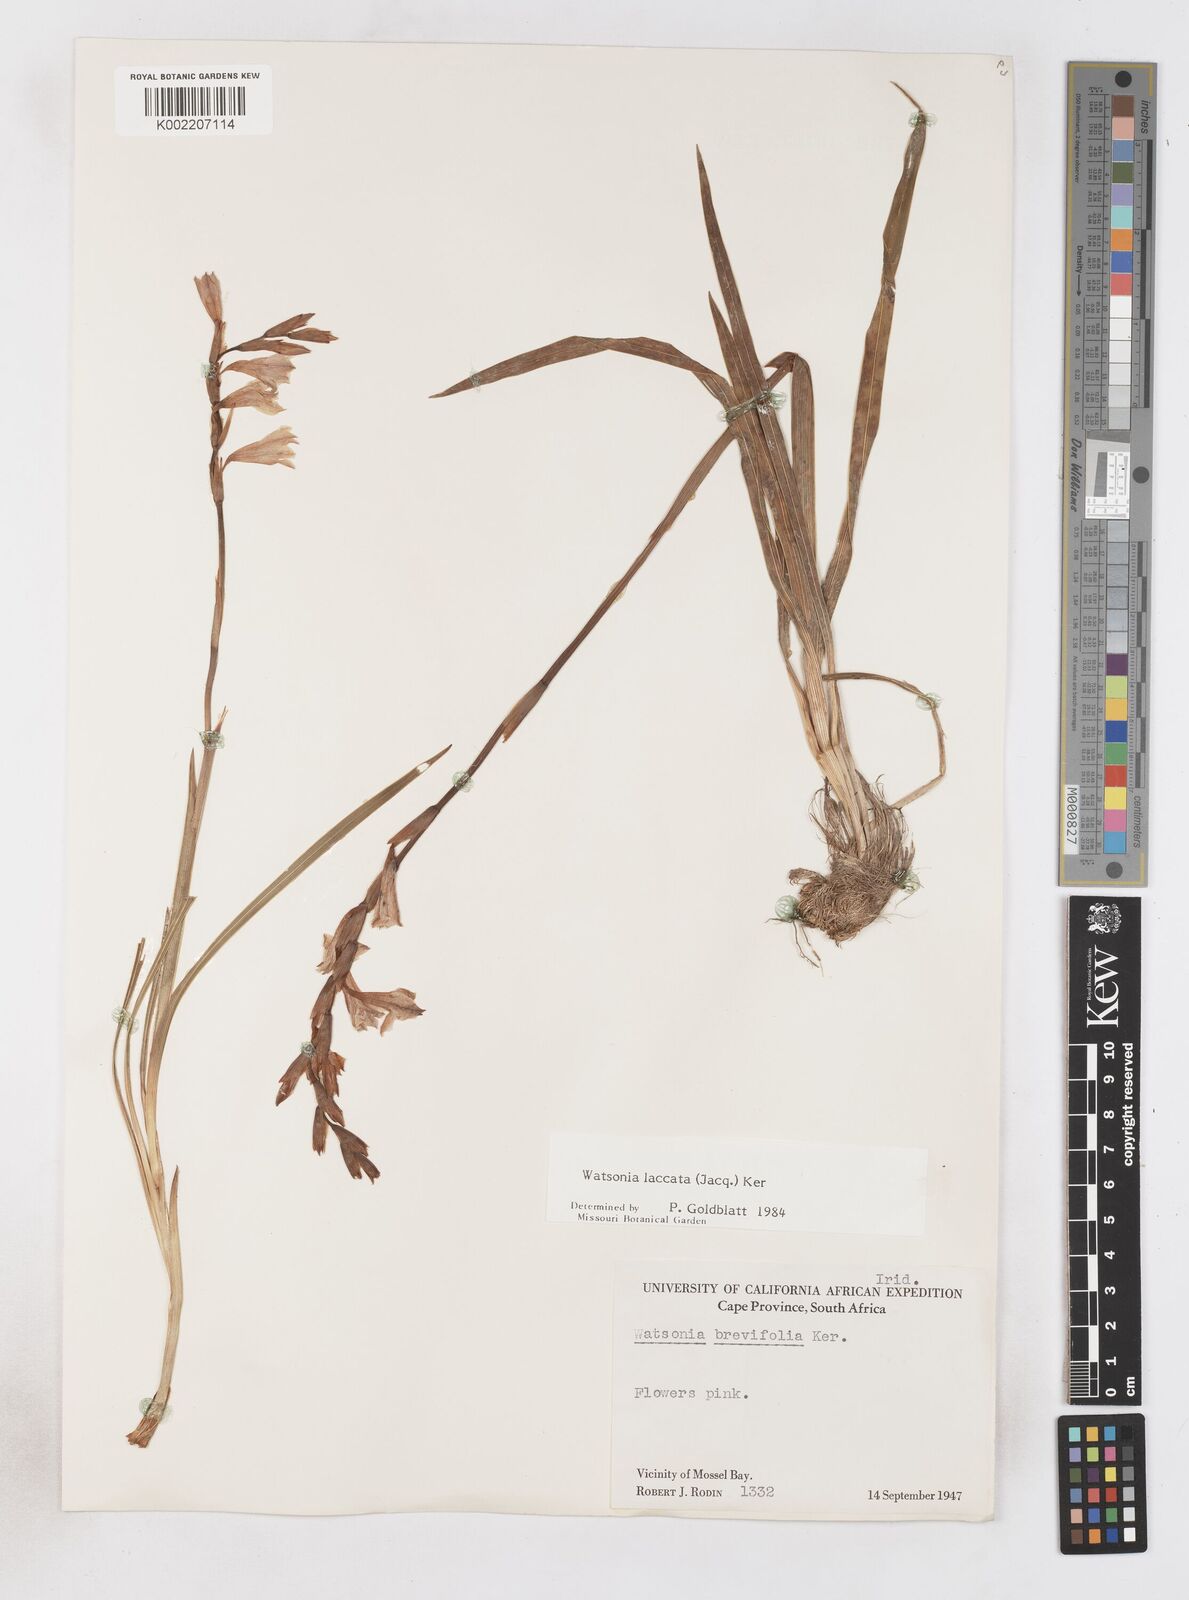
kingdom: Plantae
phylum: Tracheophyta
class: Liliopsida
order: Asparagales
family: Iridaceae
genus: Watsonia
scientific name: Watsonia laccata
